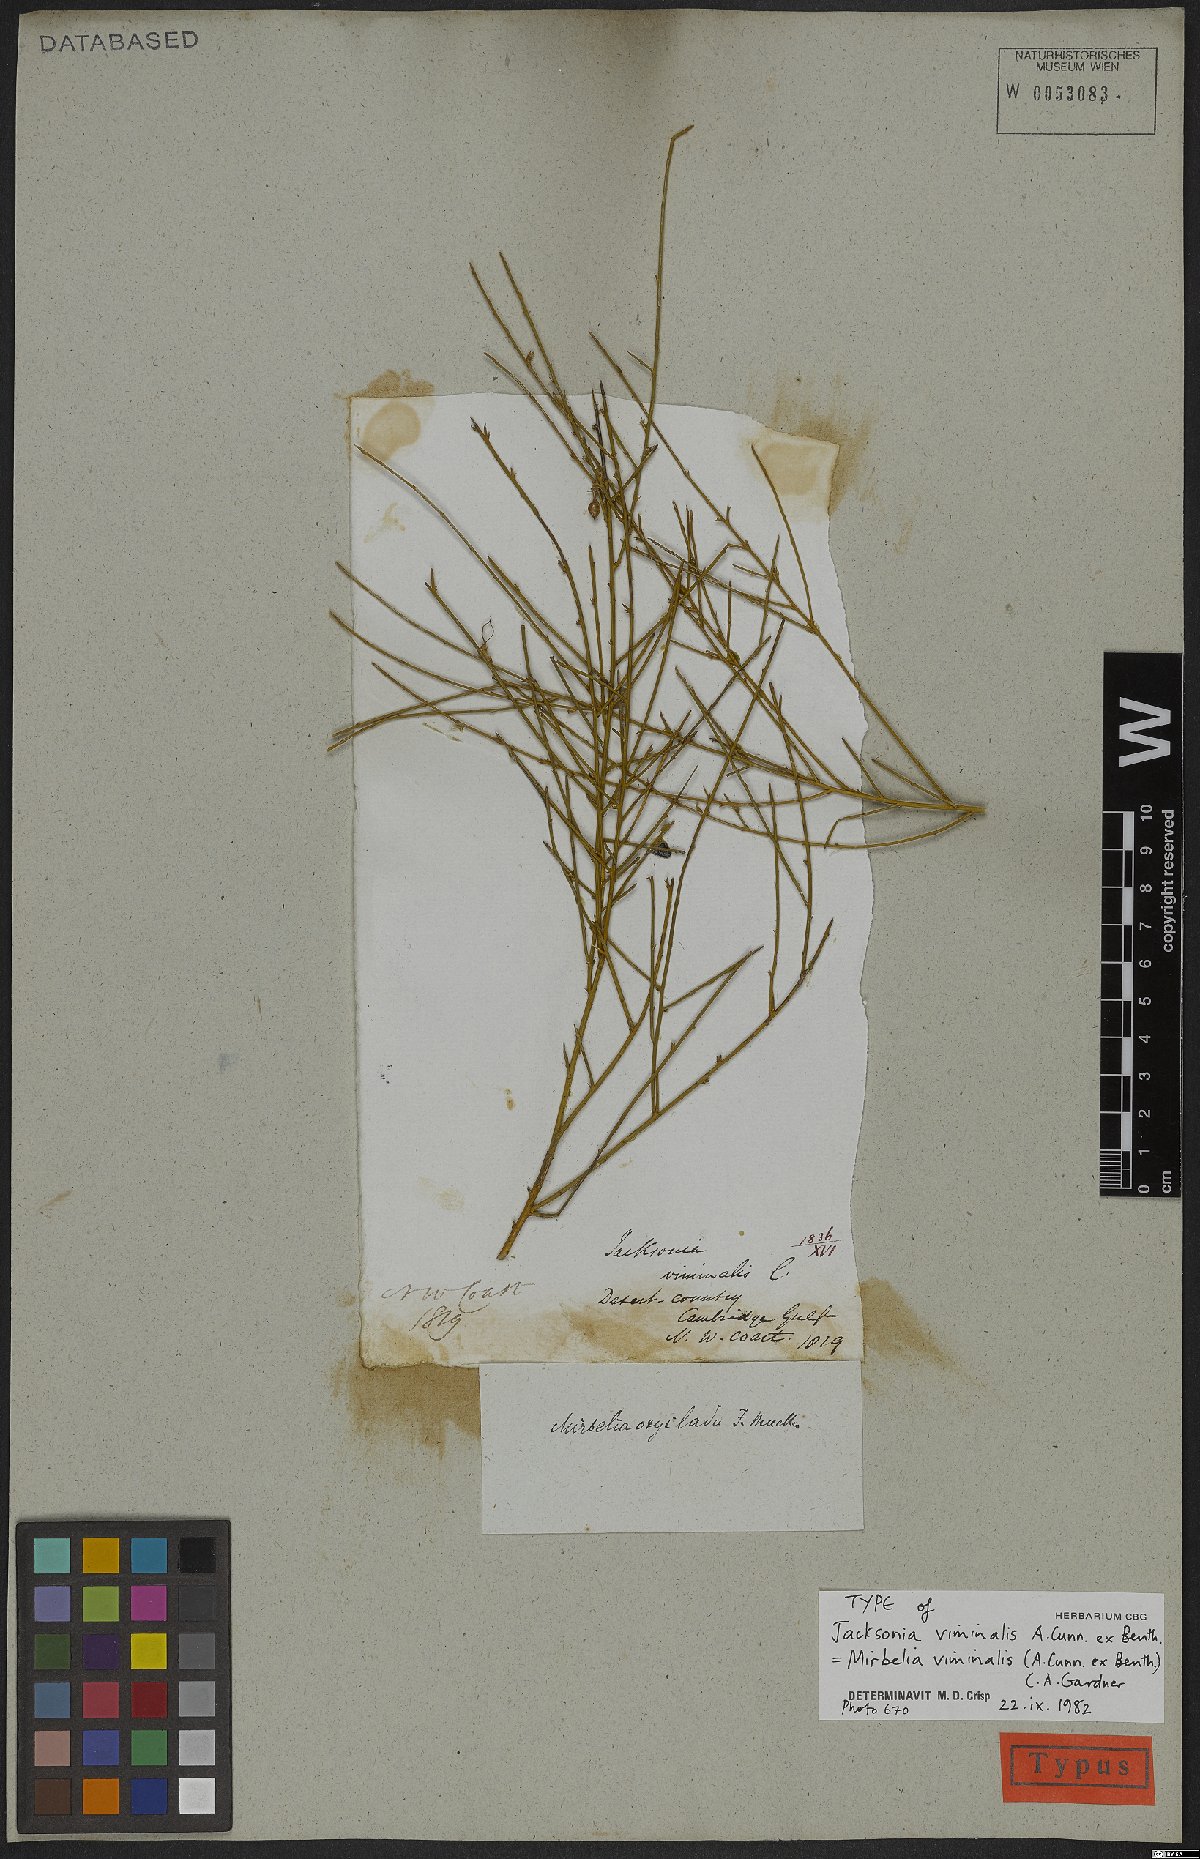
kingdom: Plantae
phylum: Tracheophyta
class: Magnoliopsida
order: Fabales
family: Fabaceae
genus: Mirbelia
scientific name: Mirbelia viminalis
